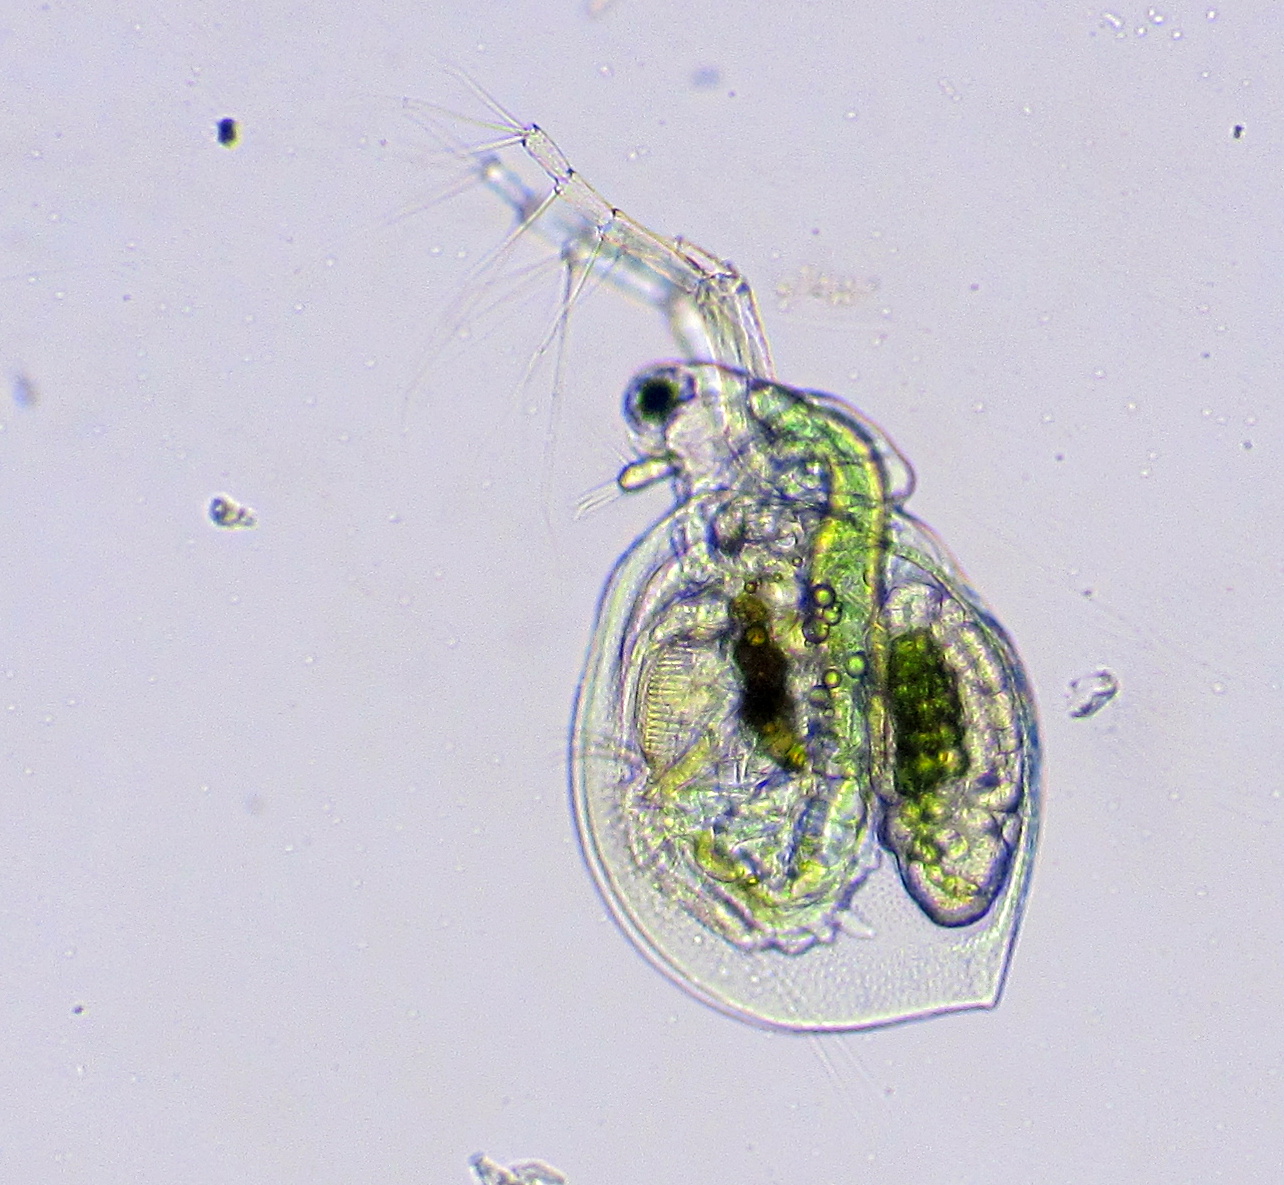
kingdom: Animalia
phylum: Arthropoda
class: Branchiopoda
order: Diplostraca
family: Daphniidae
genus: Ceriodaphnia
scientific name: Ceriodaphnia pulchella
